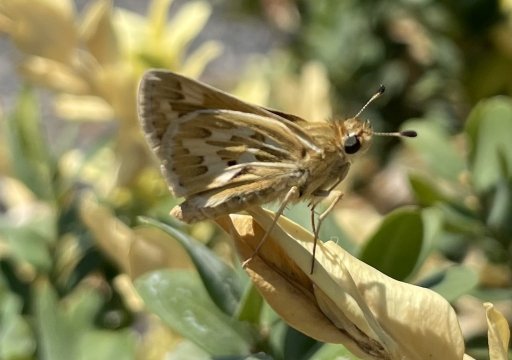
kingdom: Animalia
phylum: Arthropoda
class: Insecta
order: Lepidoptera
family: Hesperiidae
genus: Polites
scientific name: Polites sabuleti
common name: Sandhill Skipper
